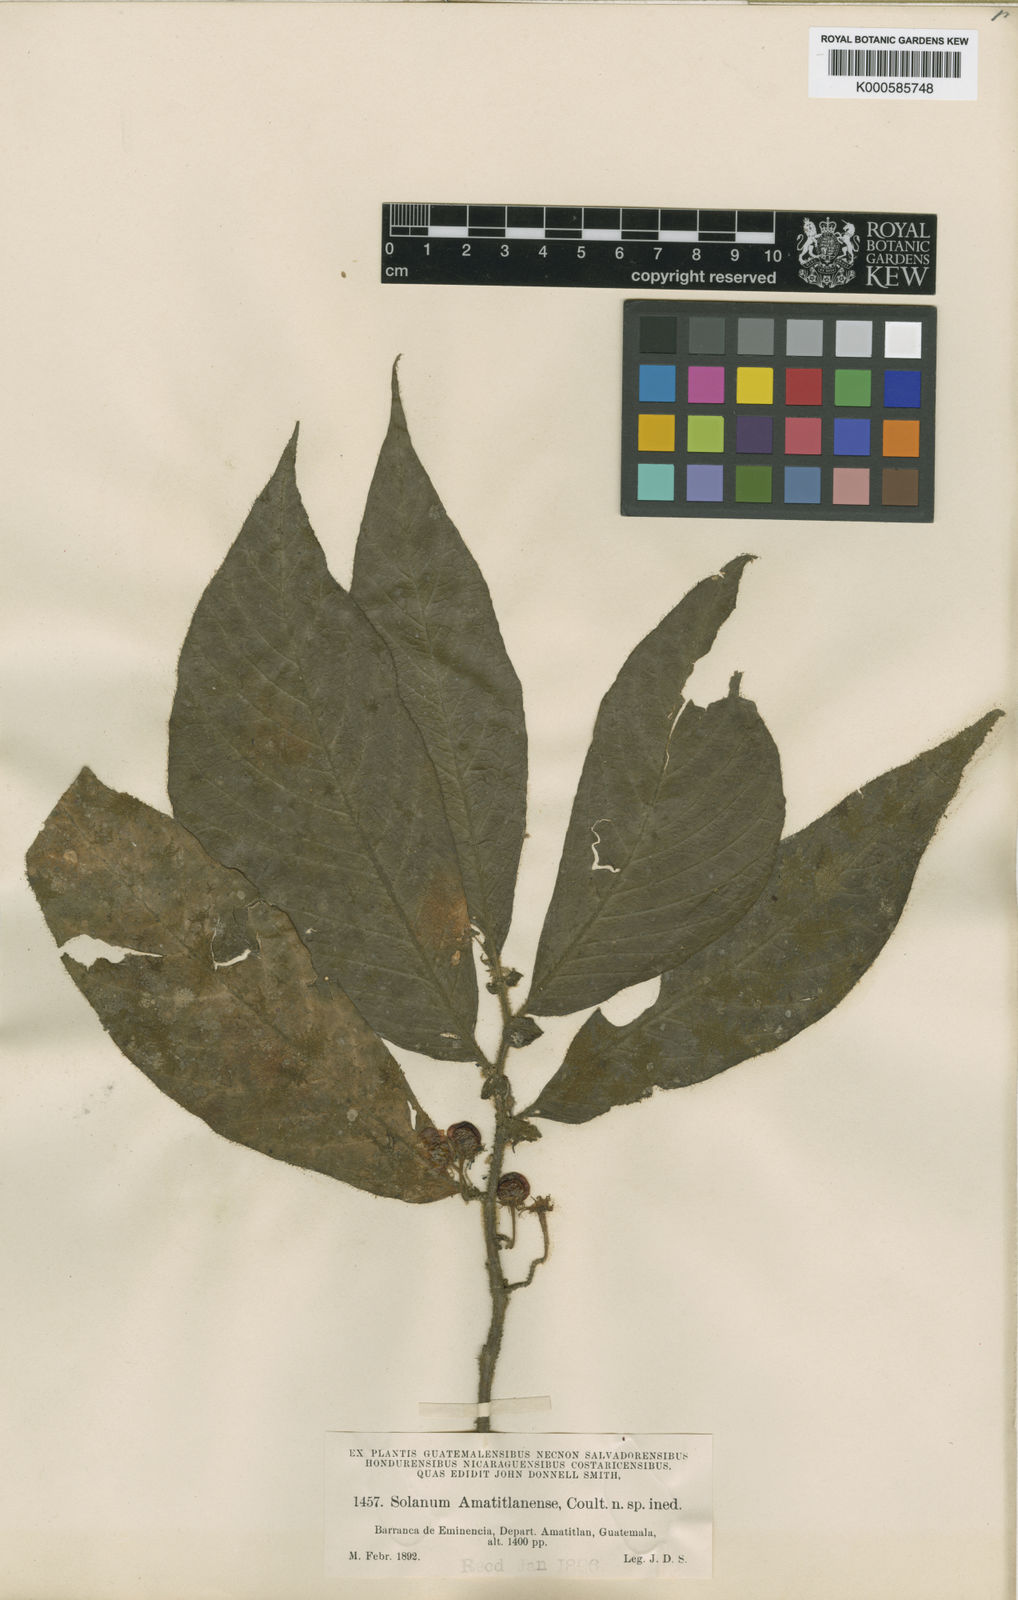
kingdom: Plantae
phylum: Tracheophyta
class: Magnoliopsida
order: Solanales
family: Solanaceae
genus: Lycianthes
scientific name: Lycianthes amatitlanensis
